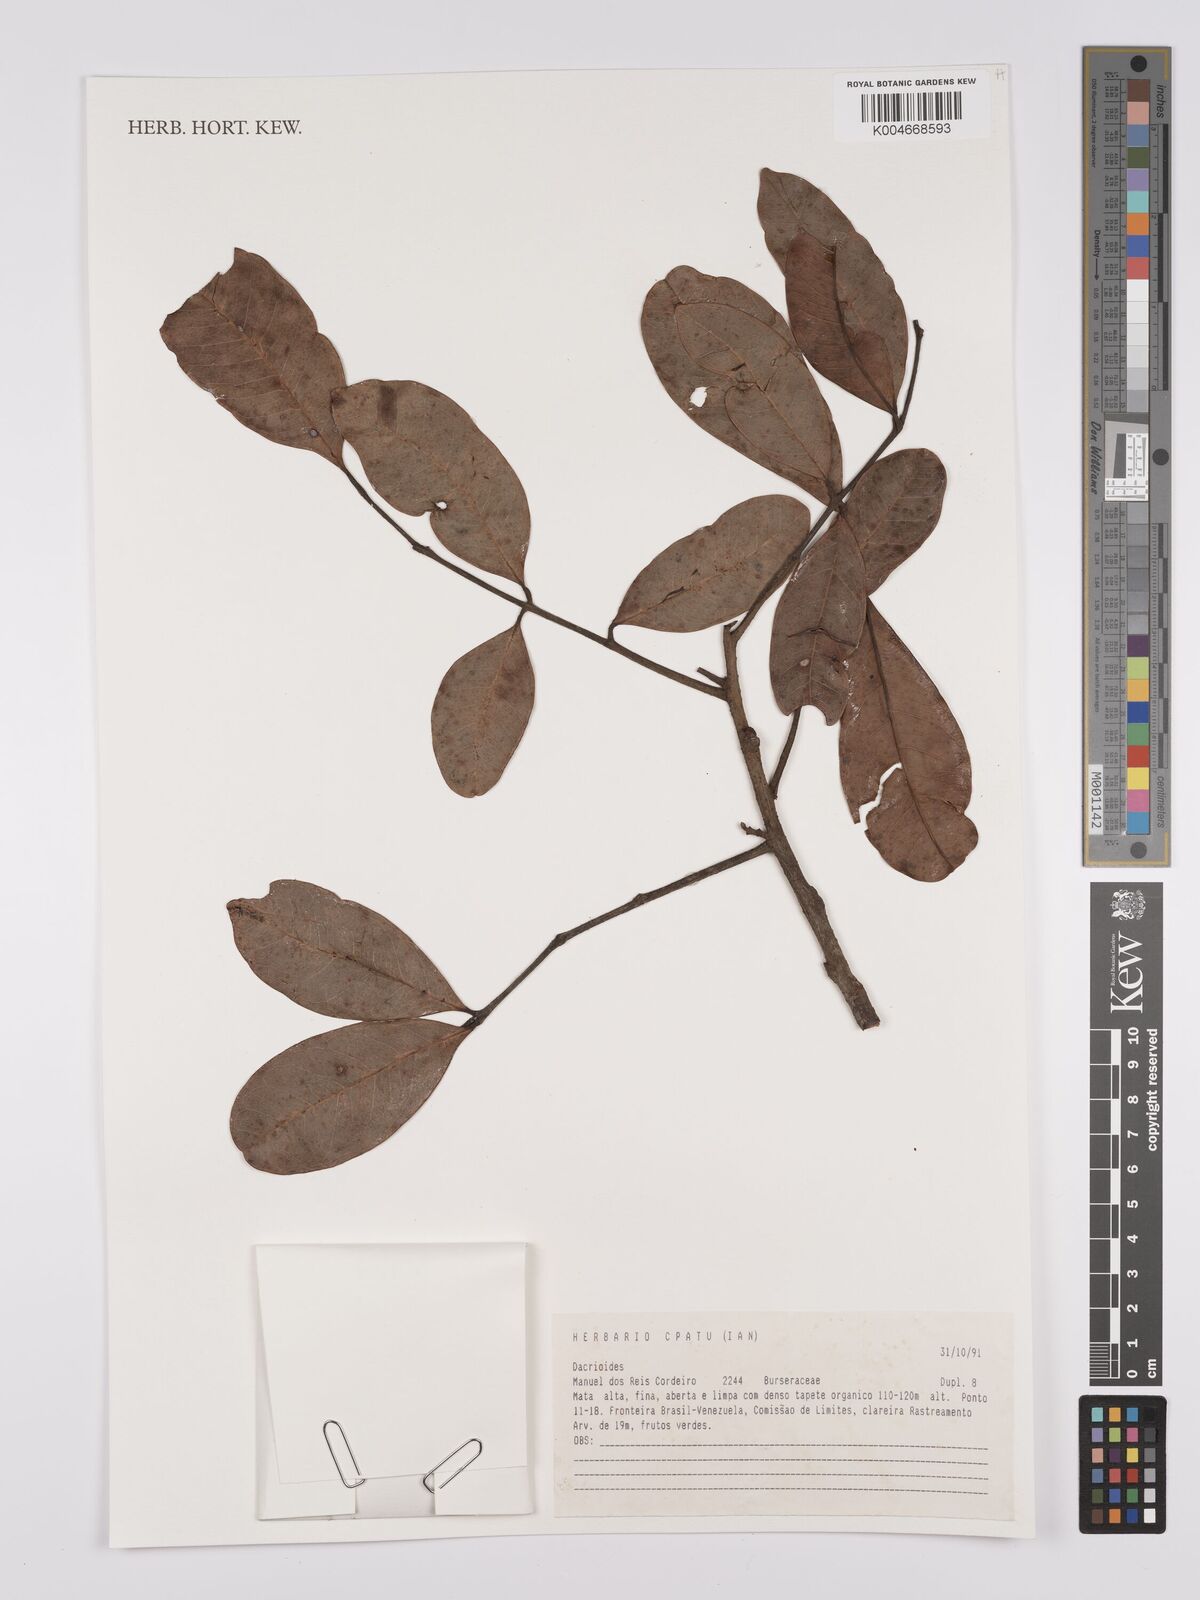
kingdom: Plantae
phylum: Tracheophyta
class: Magnoliopsida
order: Sapindales
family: Burseraceae
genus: Dacryodes
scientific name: Dacryodes
